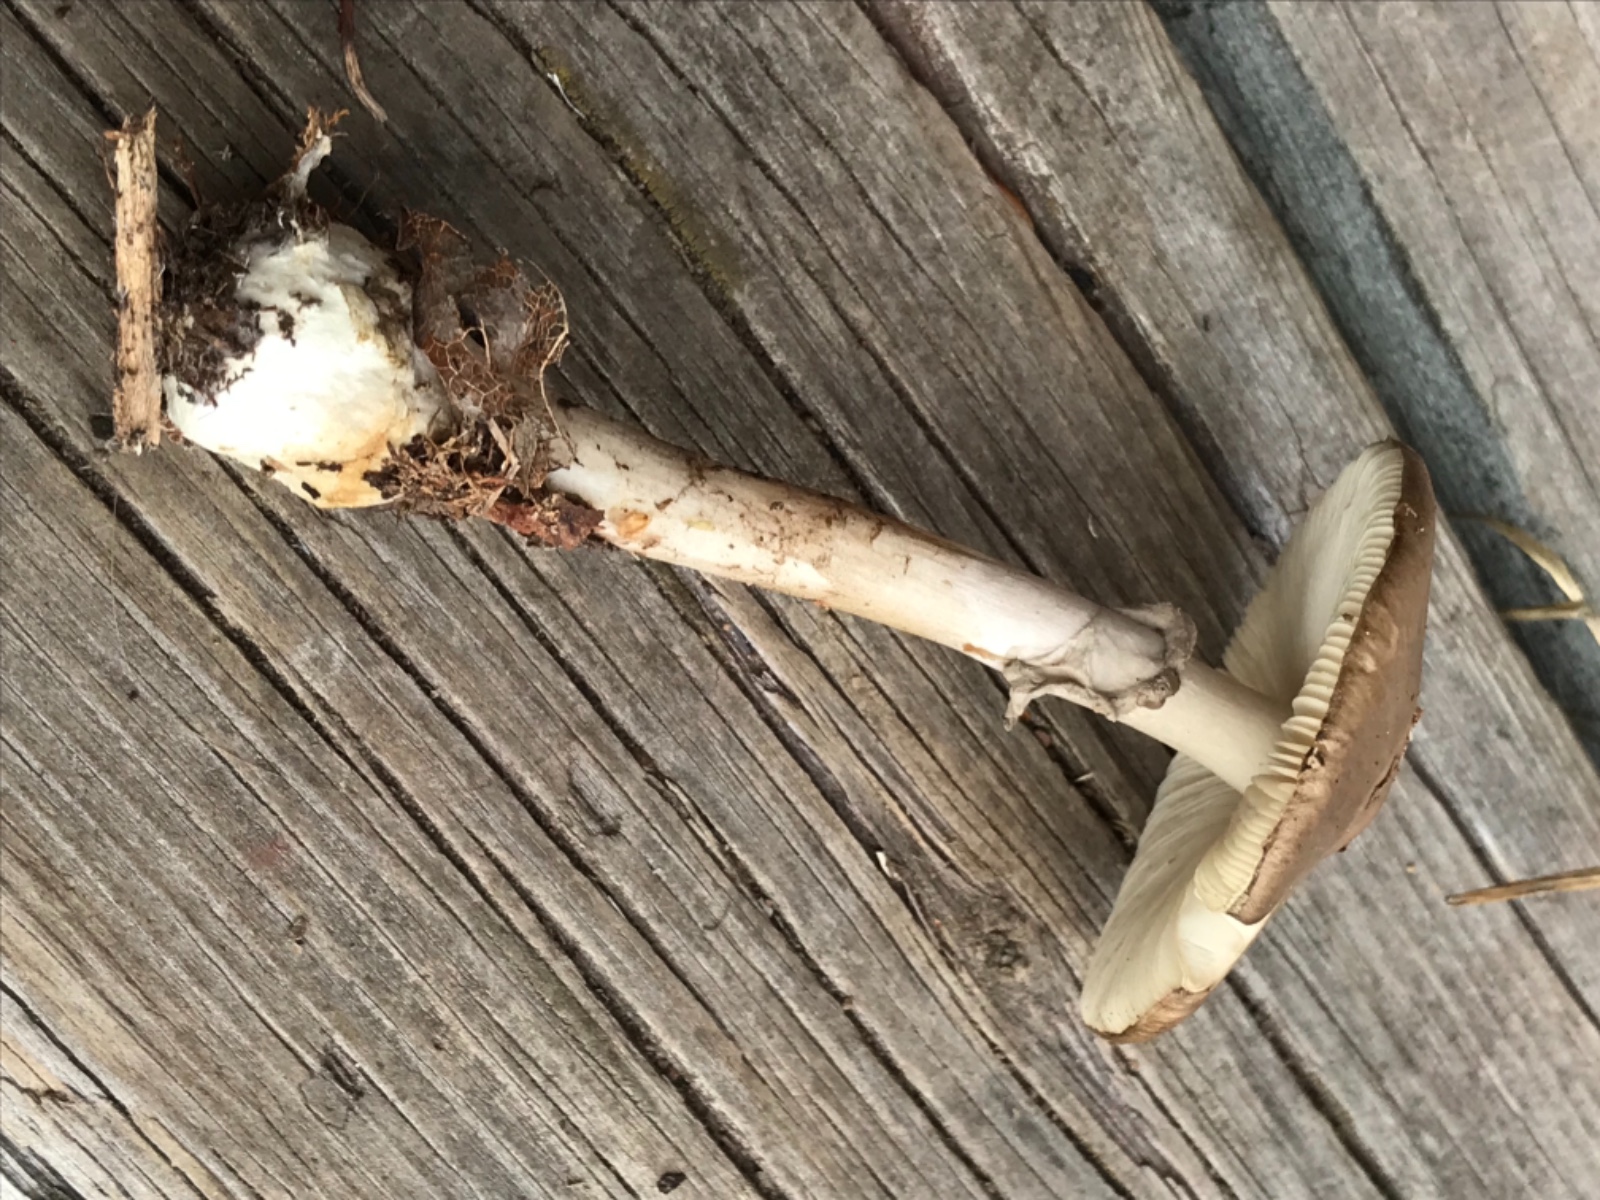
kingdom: Fungi
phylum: Basidiomycota
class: Agaricomycetes
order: Agaricales
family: Amanitaceae
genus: Amanita
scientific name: Amanita porphyria
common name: porfyr-fluesvamp
